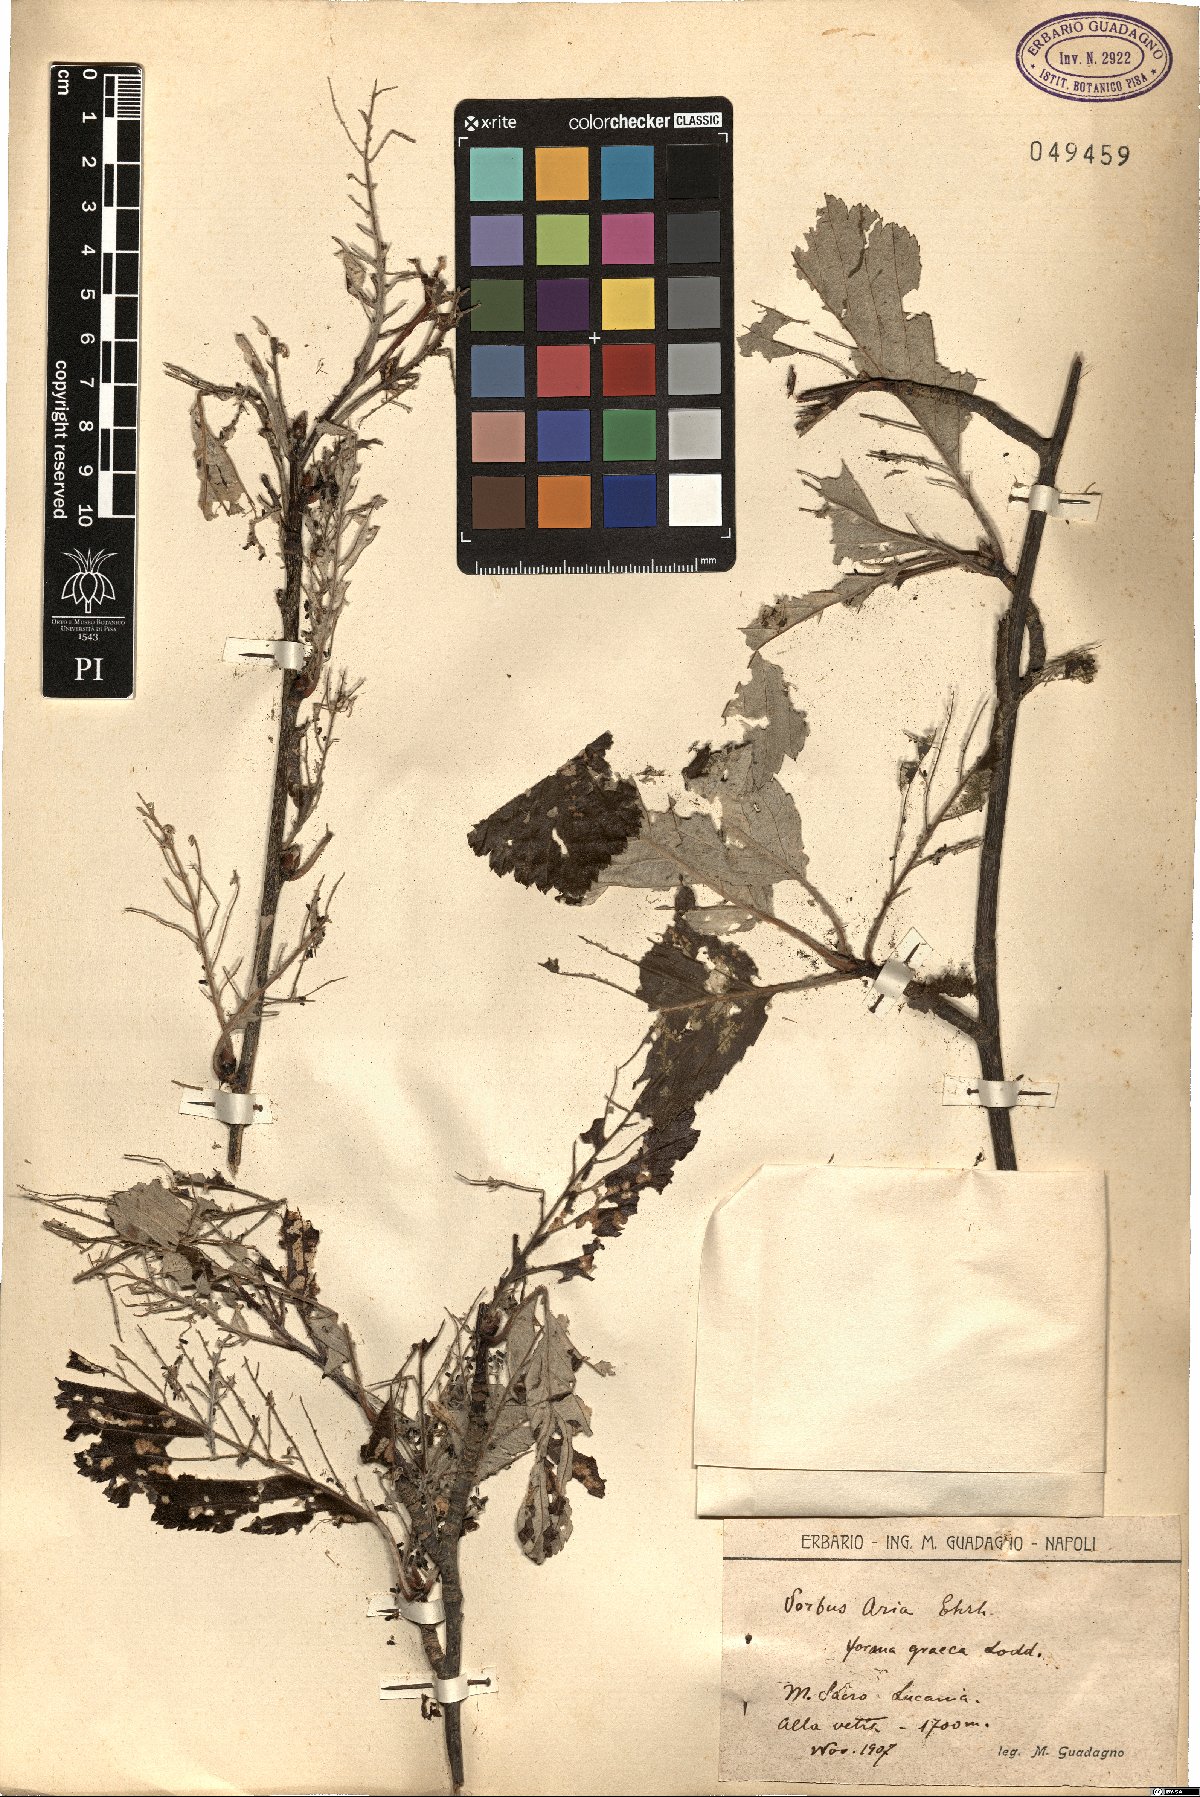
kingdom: Plantae
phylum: Tracheophyta
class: Magnoliopsida
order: Rosales
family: Rosaceae
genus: Aria
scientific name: Aria umbellata
